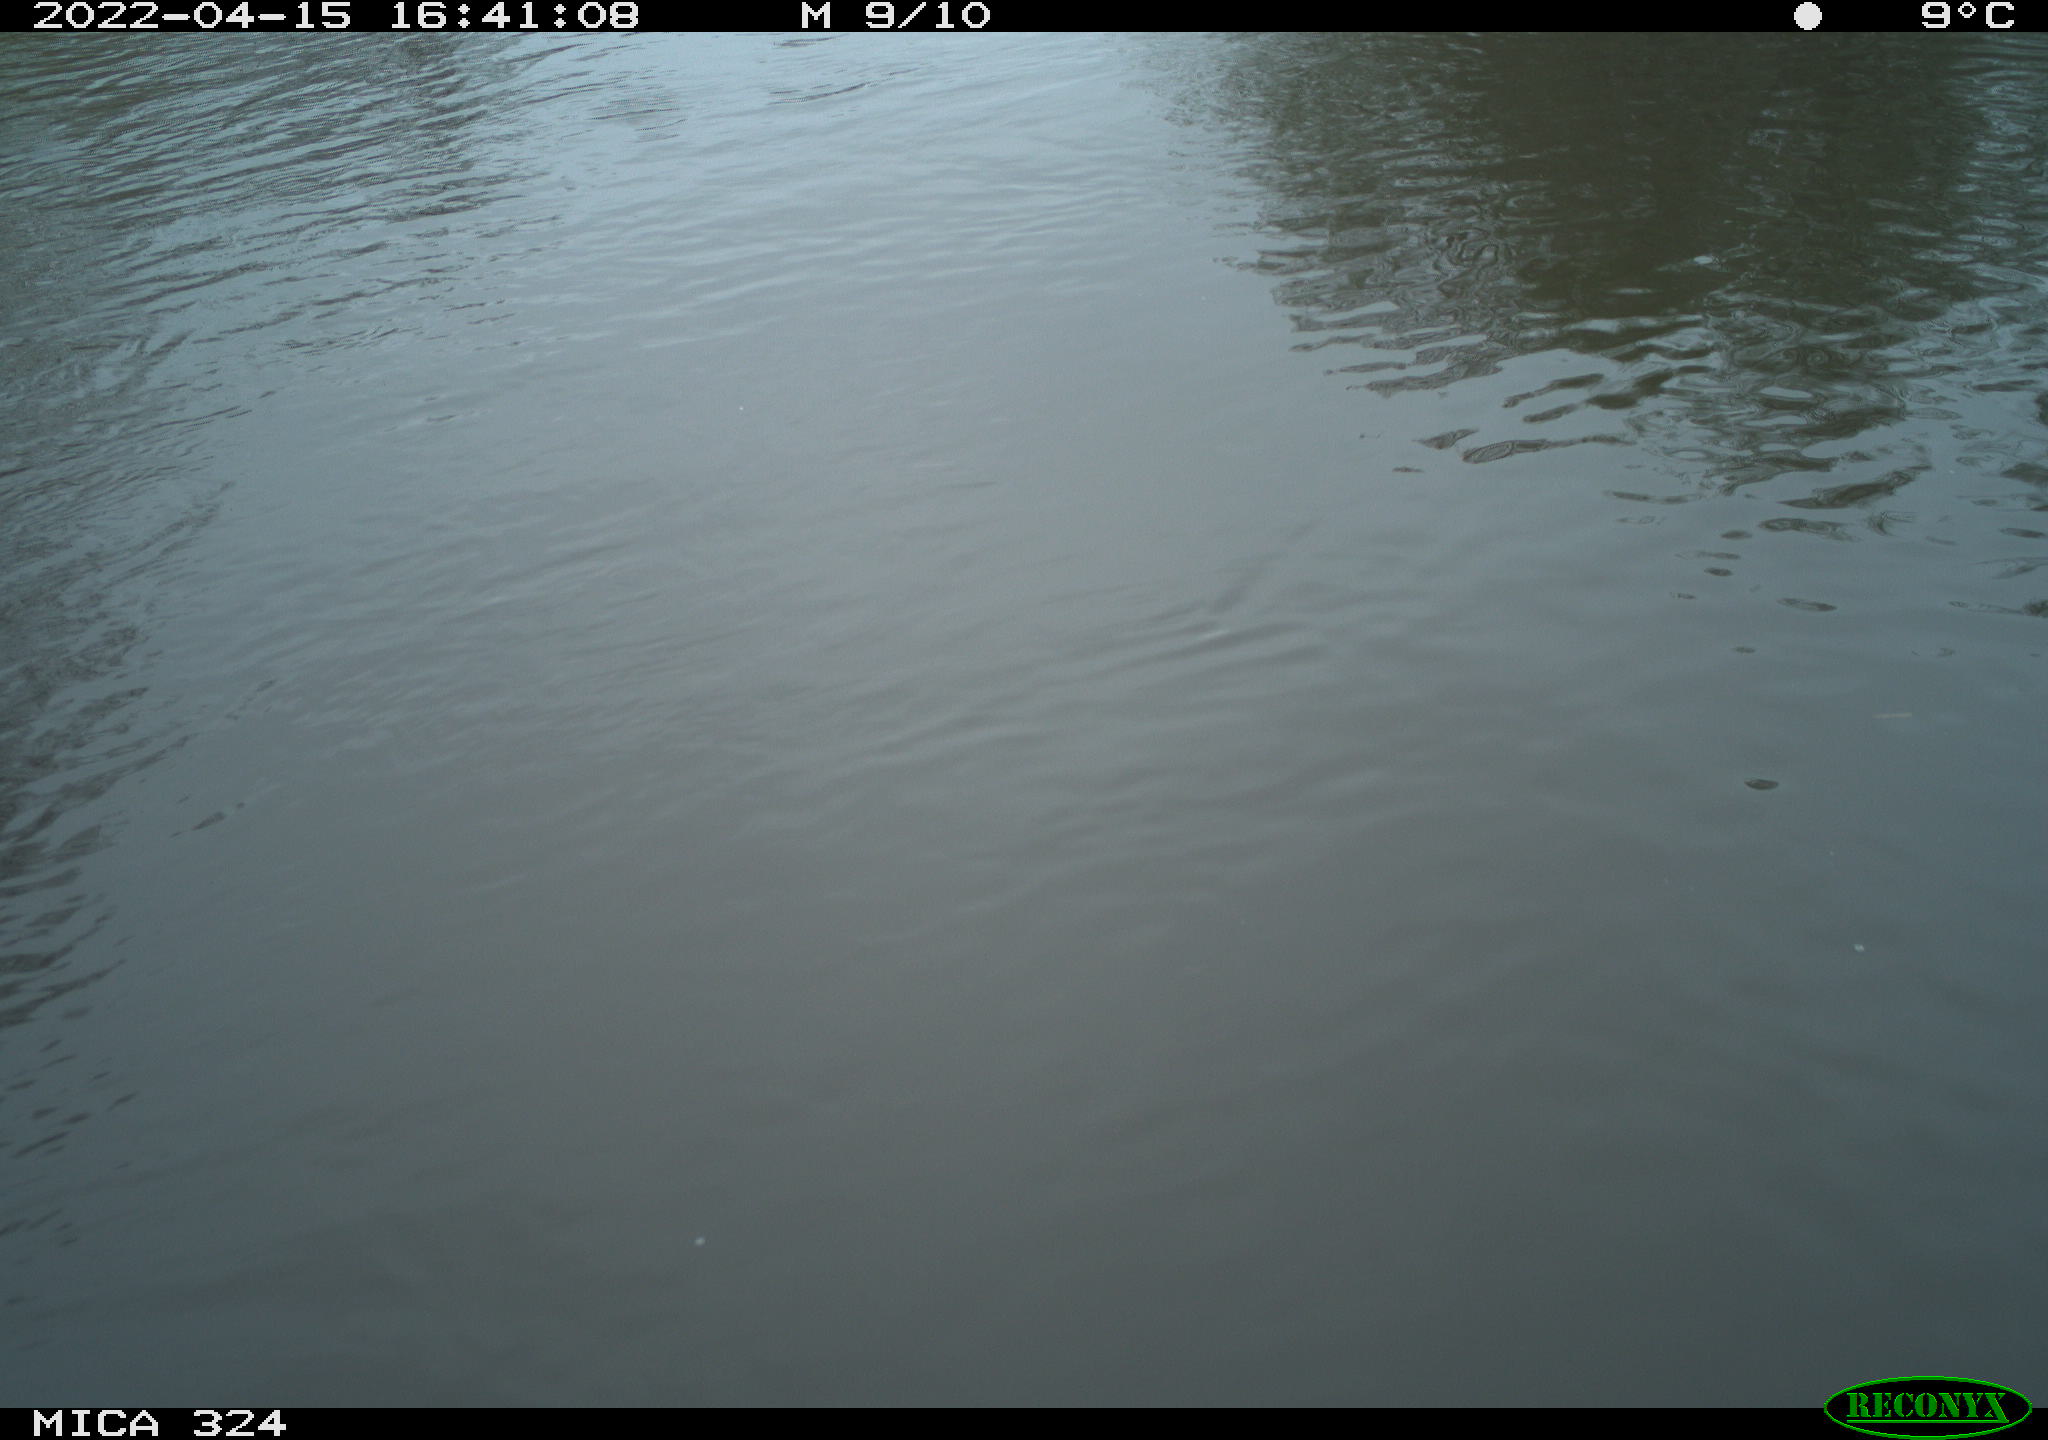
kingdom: Animalia
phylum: Chordata
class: Mammalia
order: Rodentia
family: Cricetidae
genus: Ondatra
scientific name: Ondatra zibethicus
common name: Muskrat
